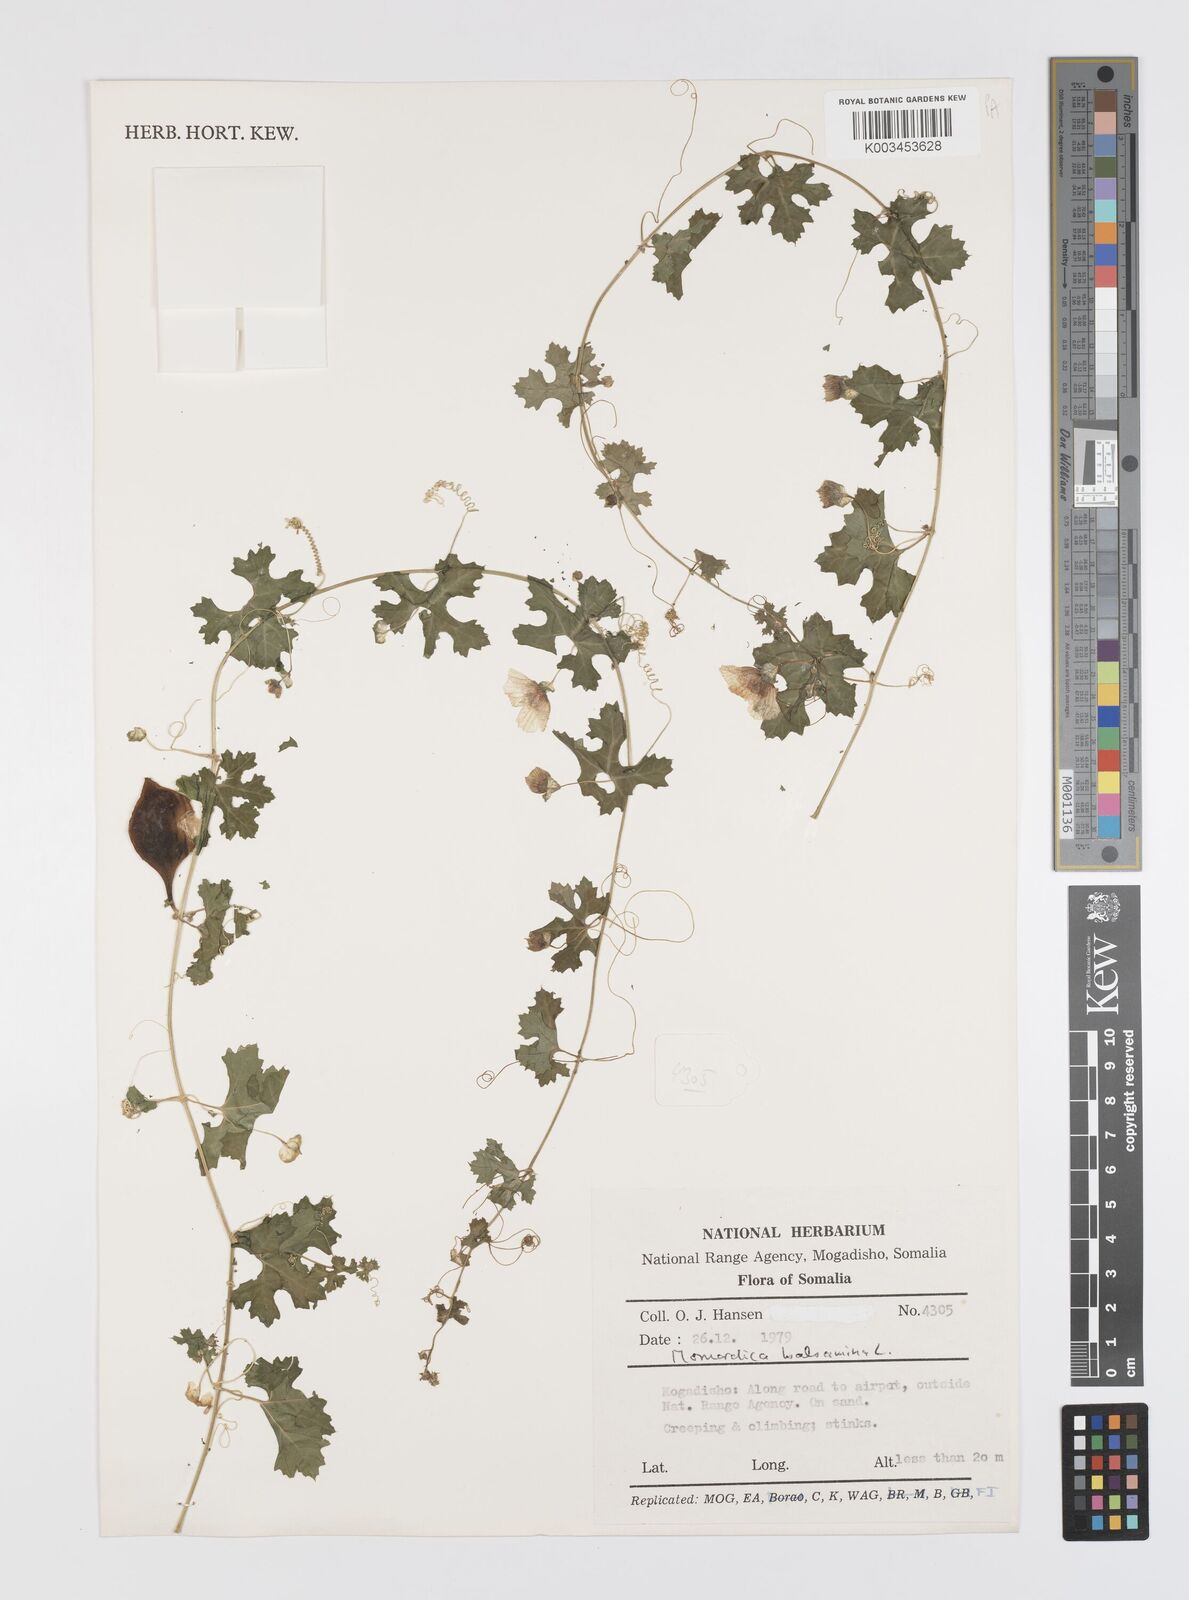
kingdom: Plantae
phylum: Tracheophyta
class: Magnoliopsida
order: Cucurbitales
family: Cucurbitaceae
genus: Momordica
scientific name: Momordica balsamina
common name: Southern balsampear
